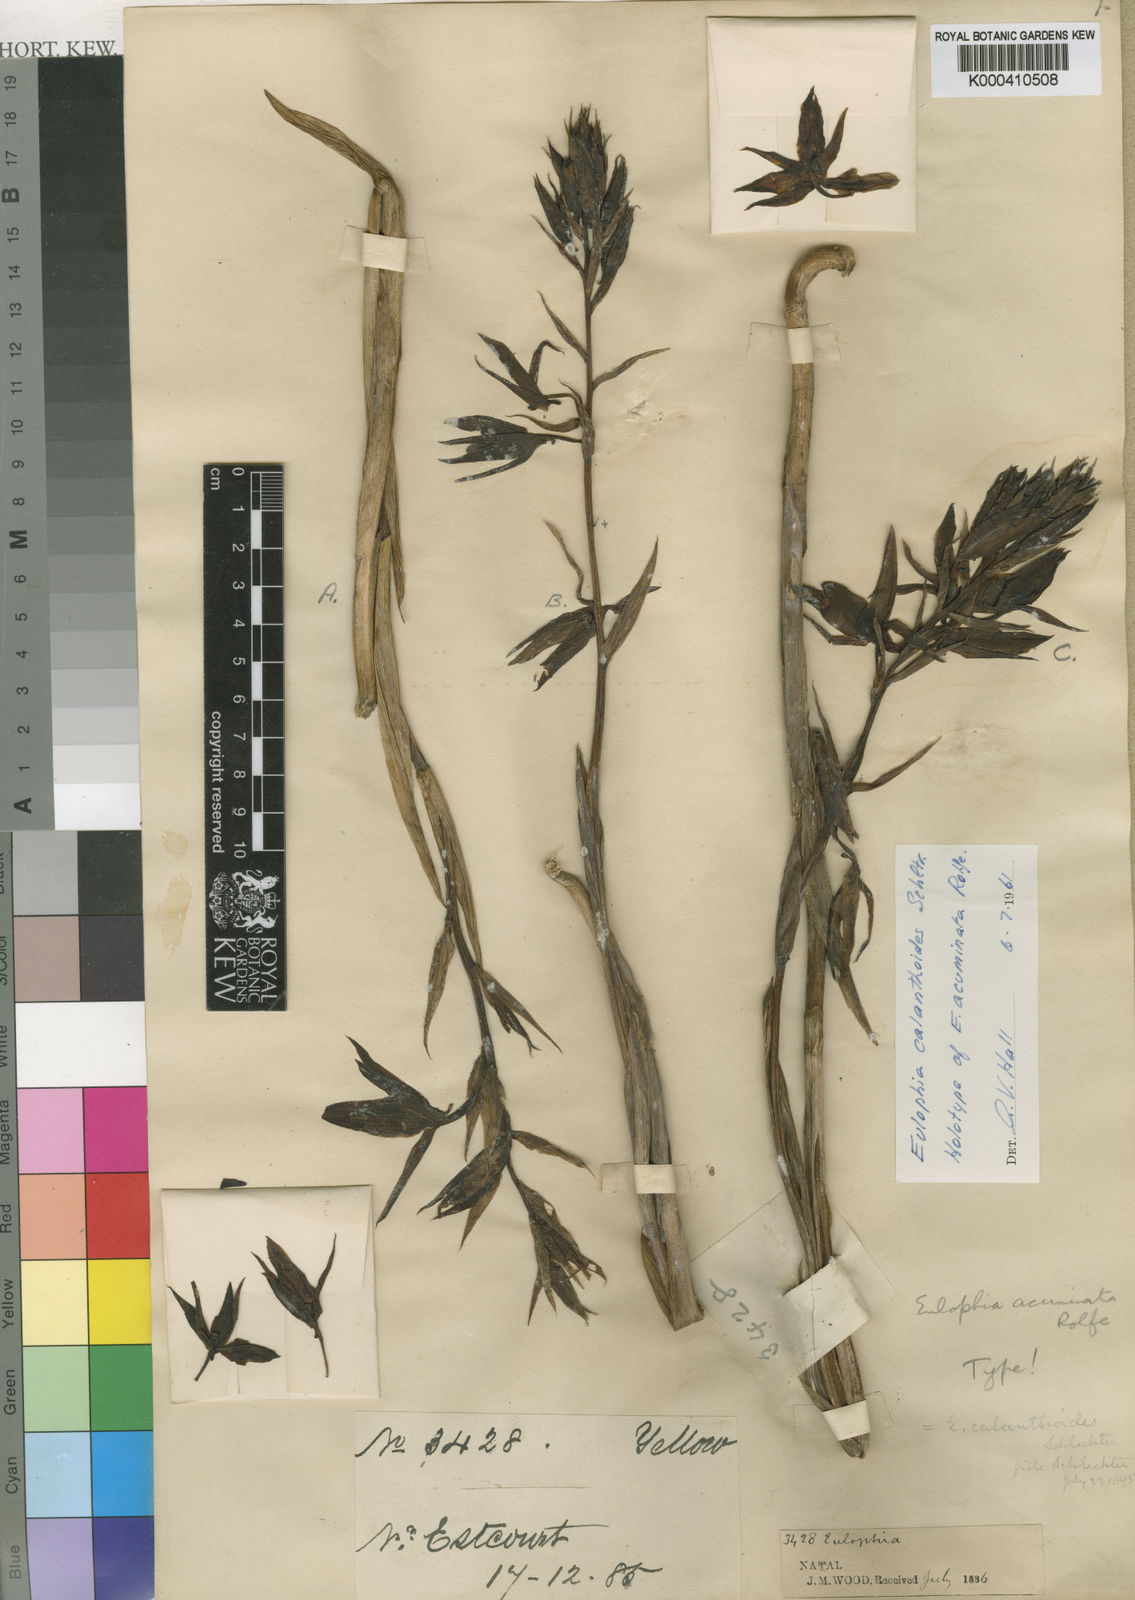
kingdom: Plantae
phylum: Tracheophyta
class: Liliopsida
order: Asparagales
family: Orchidaceae
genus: Eulophia
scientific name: Eulophia calanthoides
